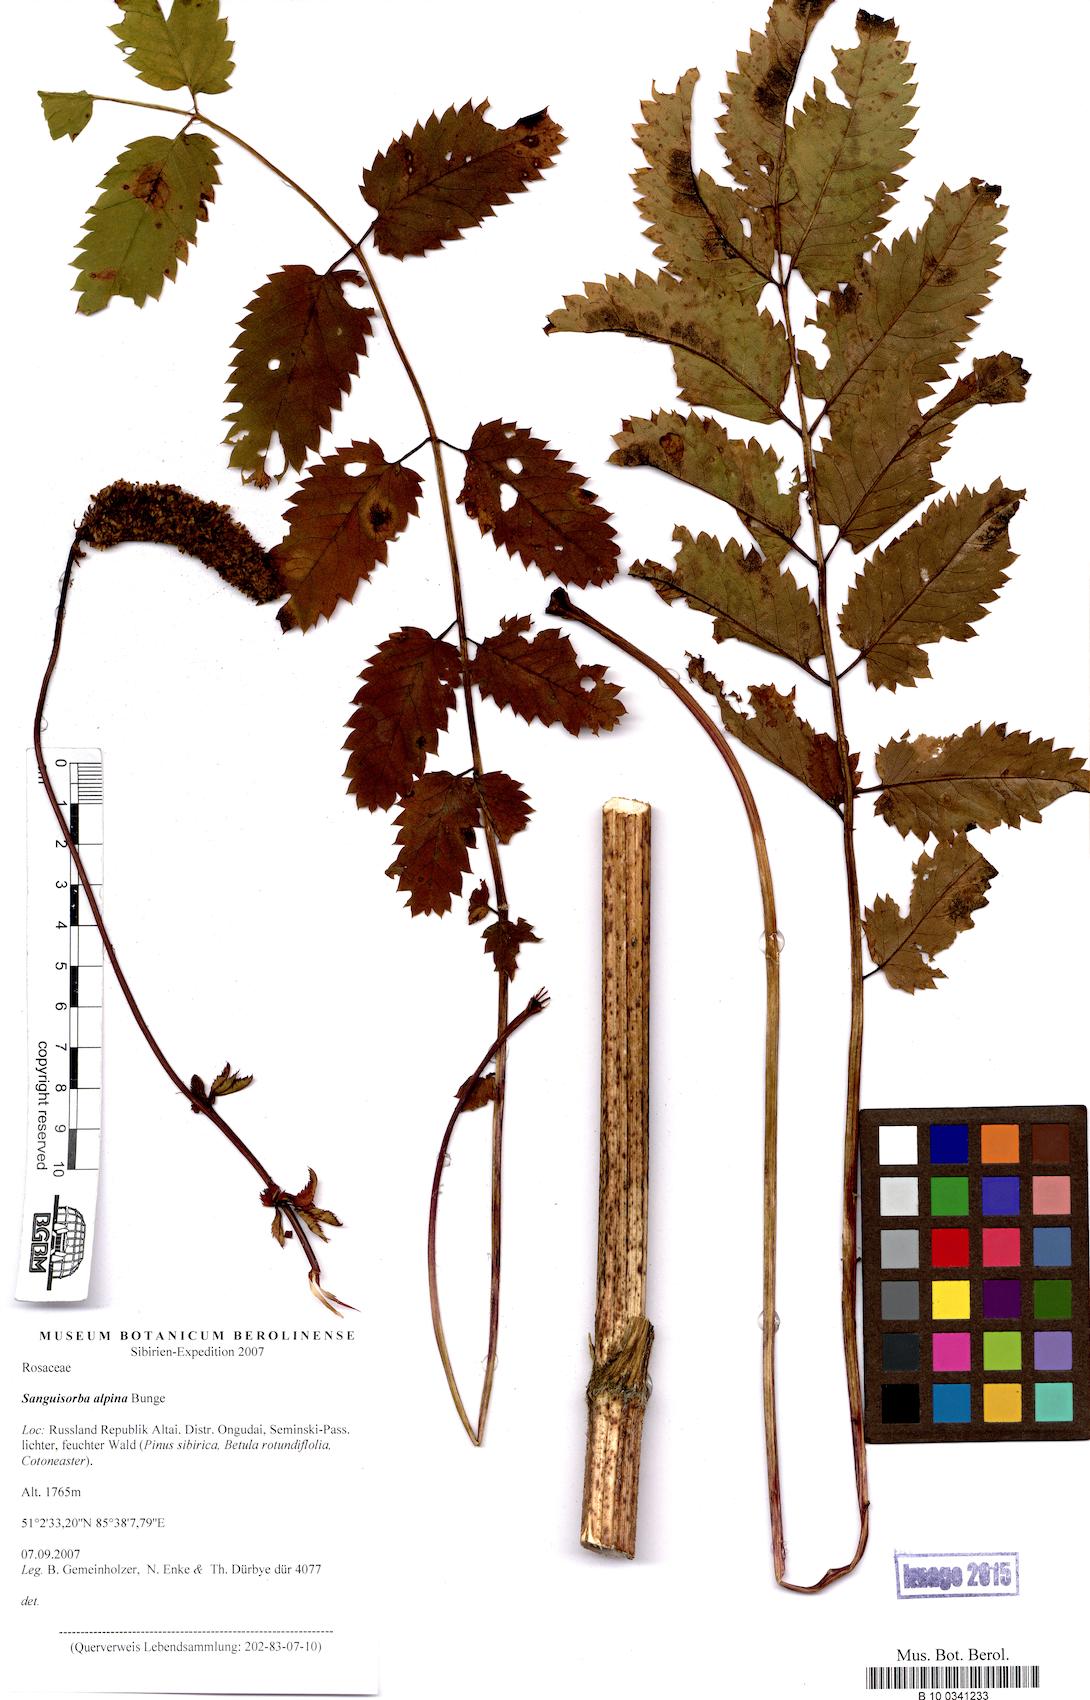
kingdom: Plantae
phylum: Tracheophyta
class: Magnoliopsida
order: Rosales
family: Rosaceae
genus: Sanguisorba
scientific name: Sanguisorba alpina
